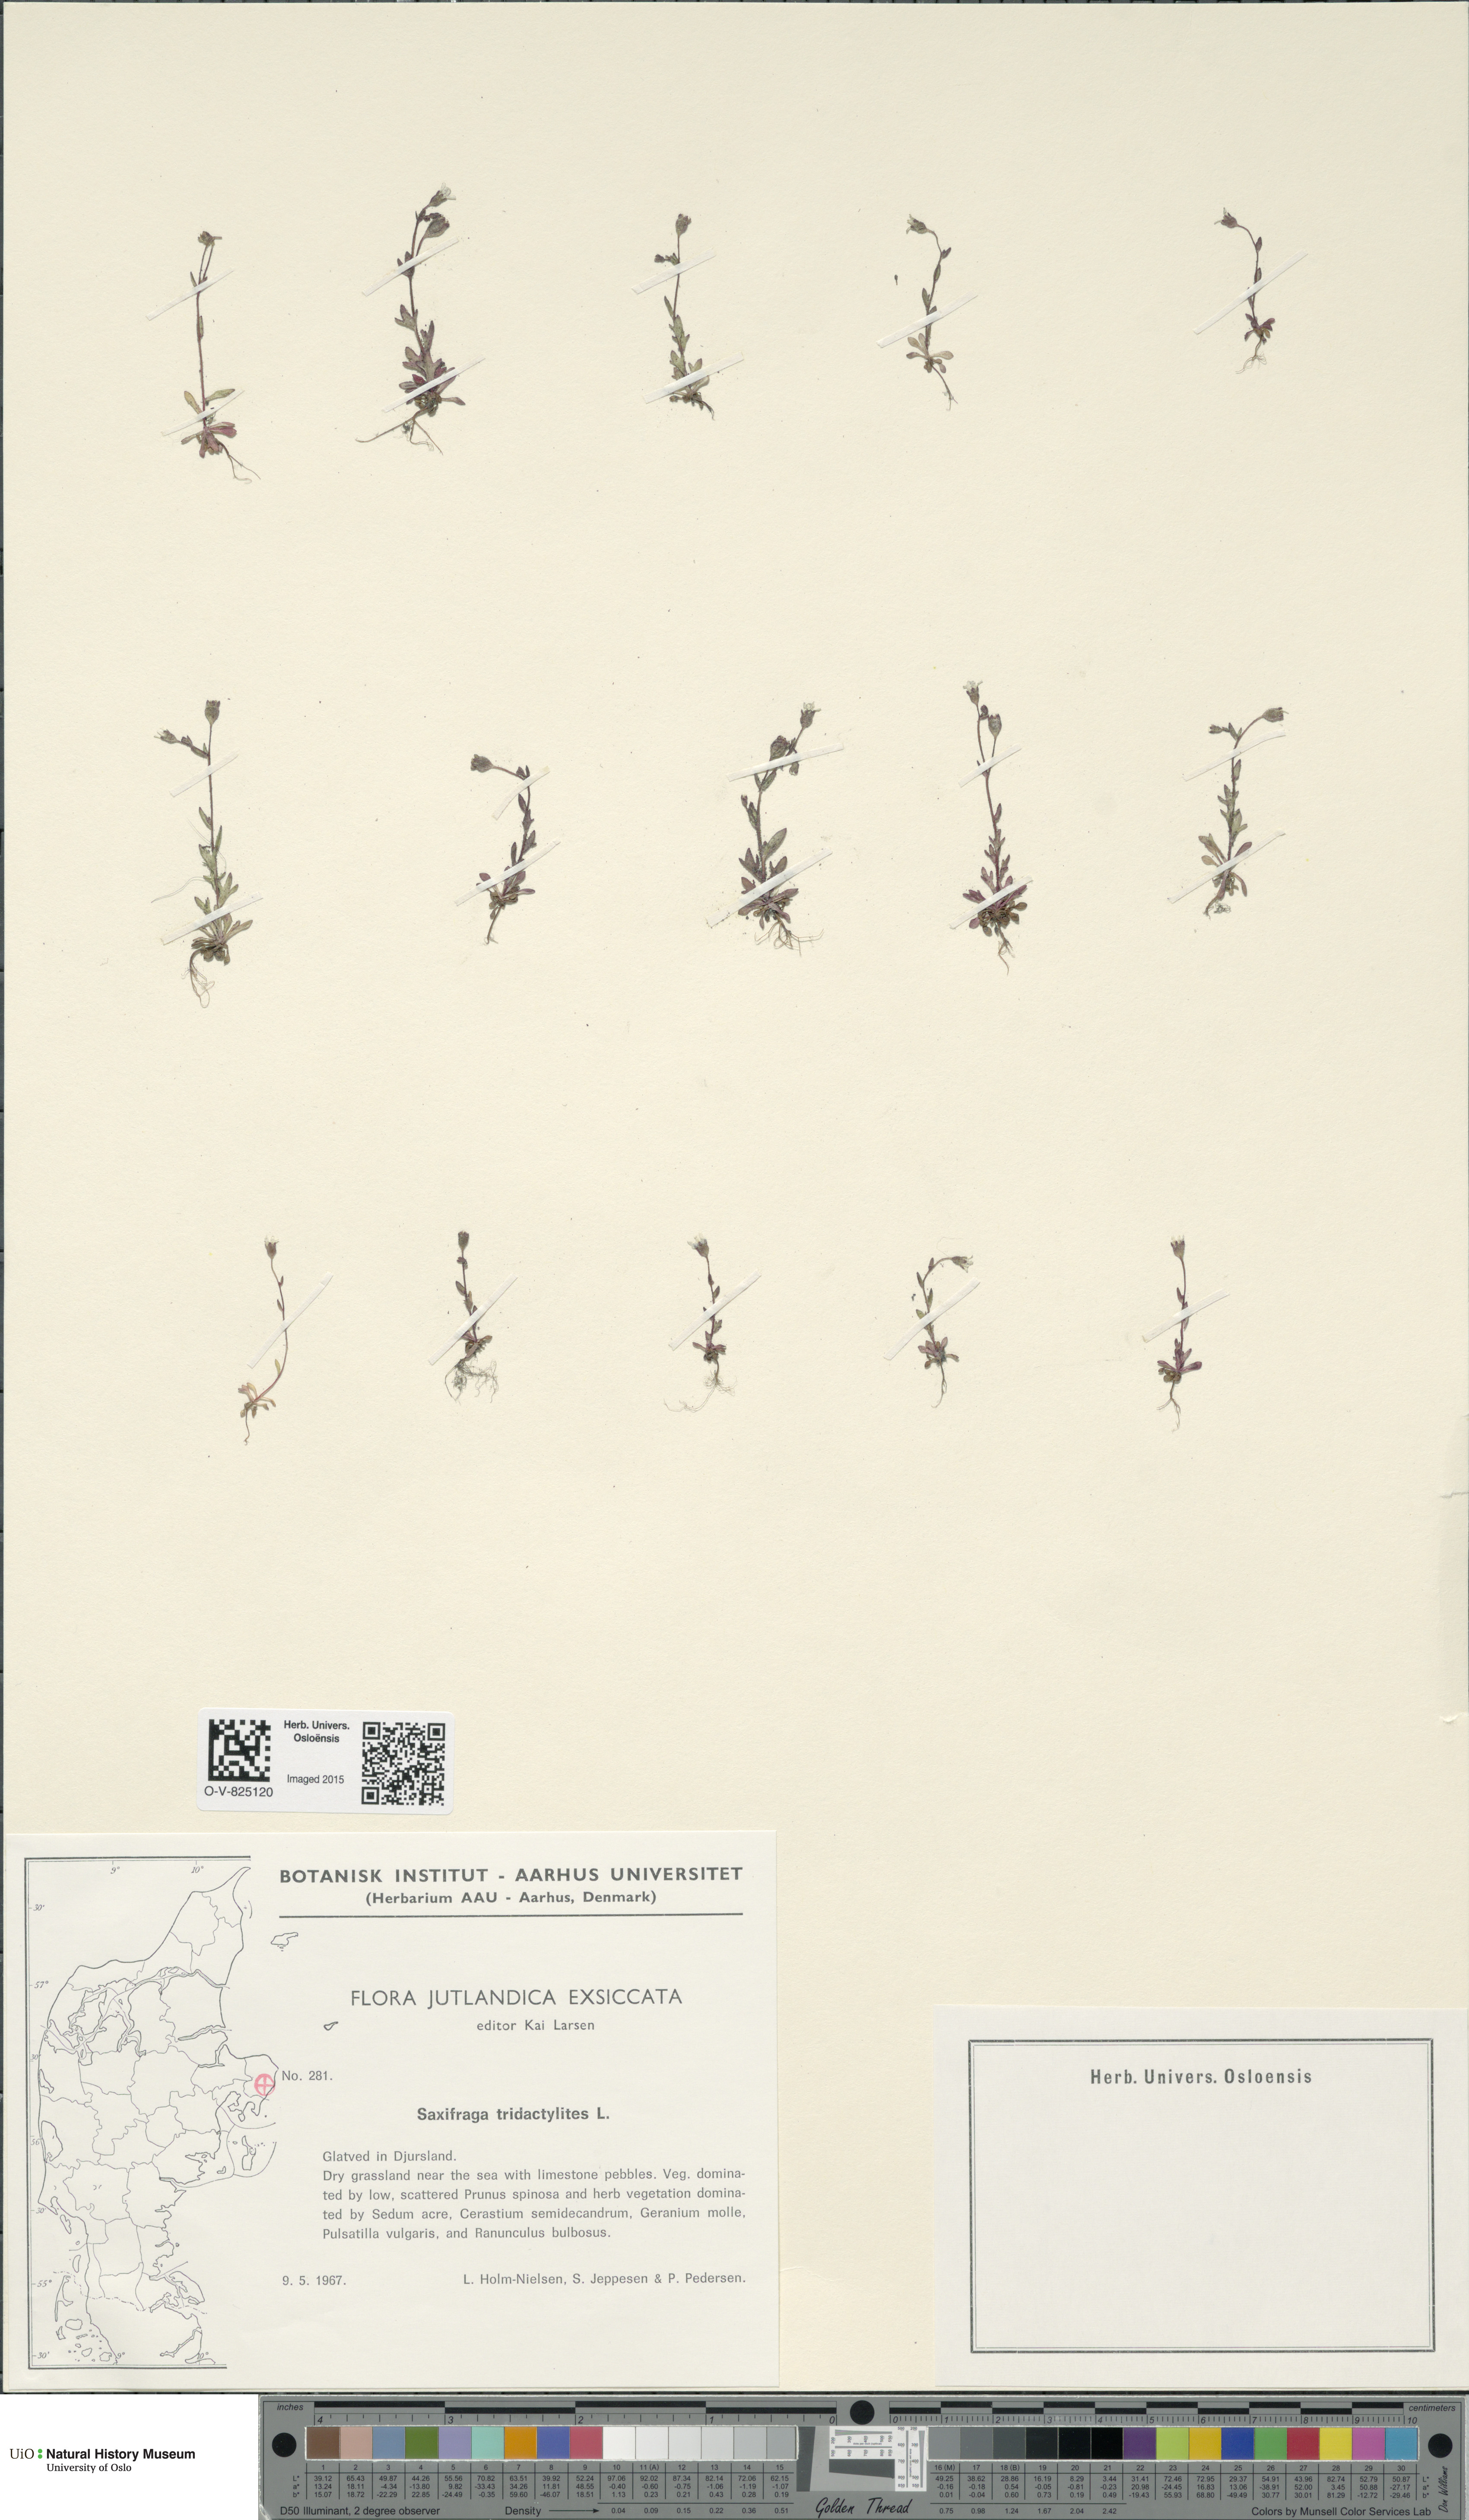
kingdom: Plantae
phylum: Tracheophyta
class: Magnoliopsida
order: Saxifragales
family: Saxifragaceae
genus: Saxifraga
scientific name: Saxifraga tridactylites
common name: Rue-leaved saxifrage
